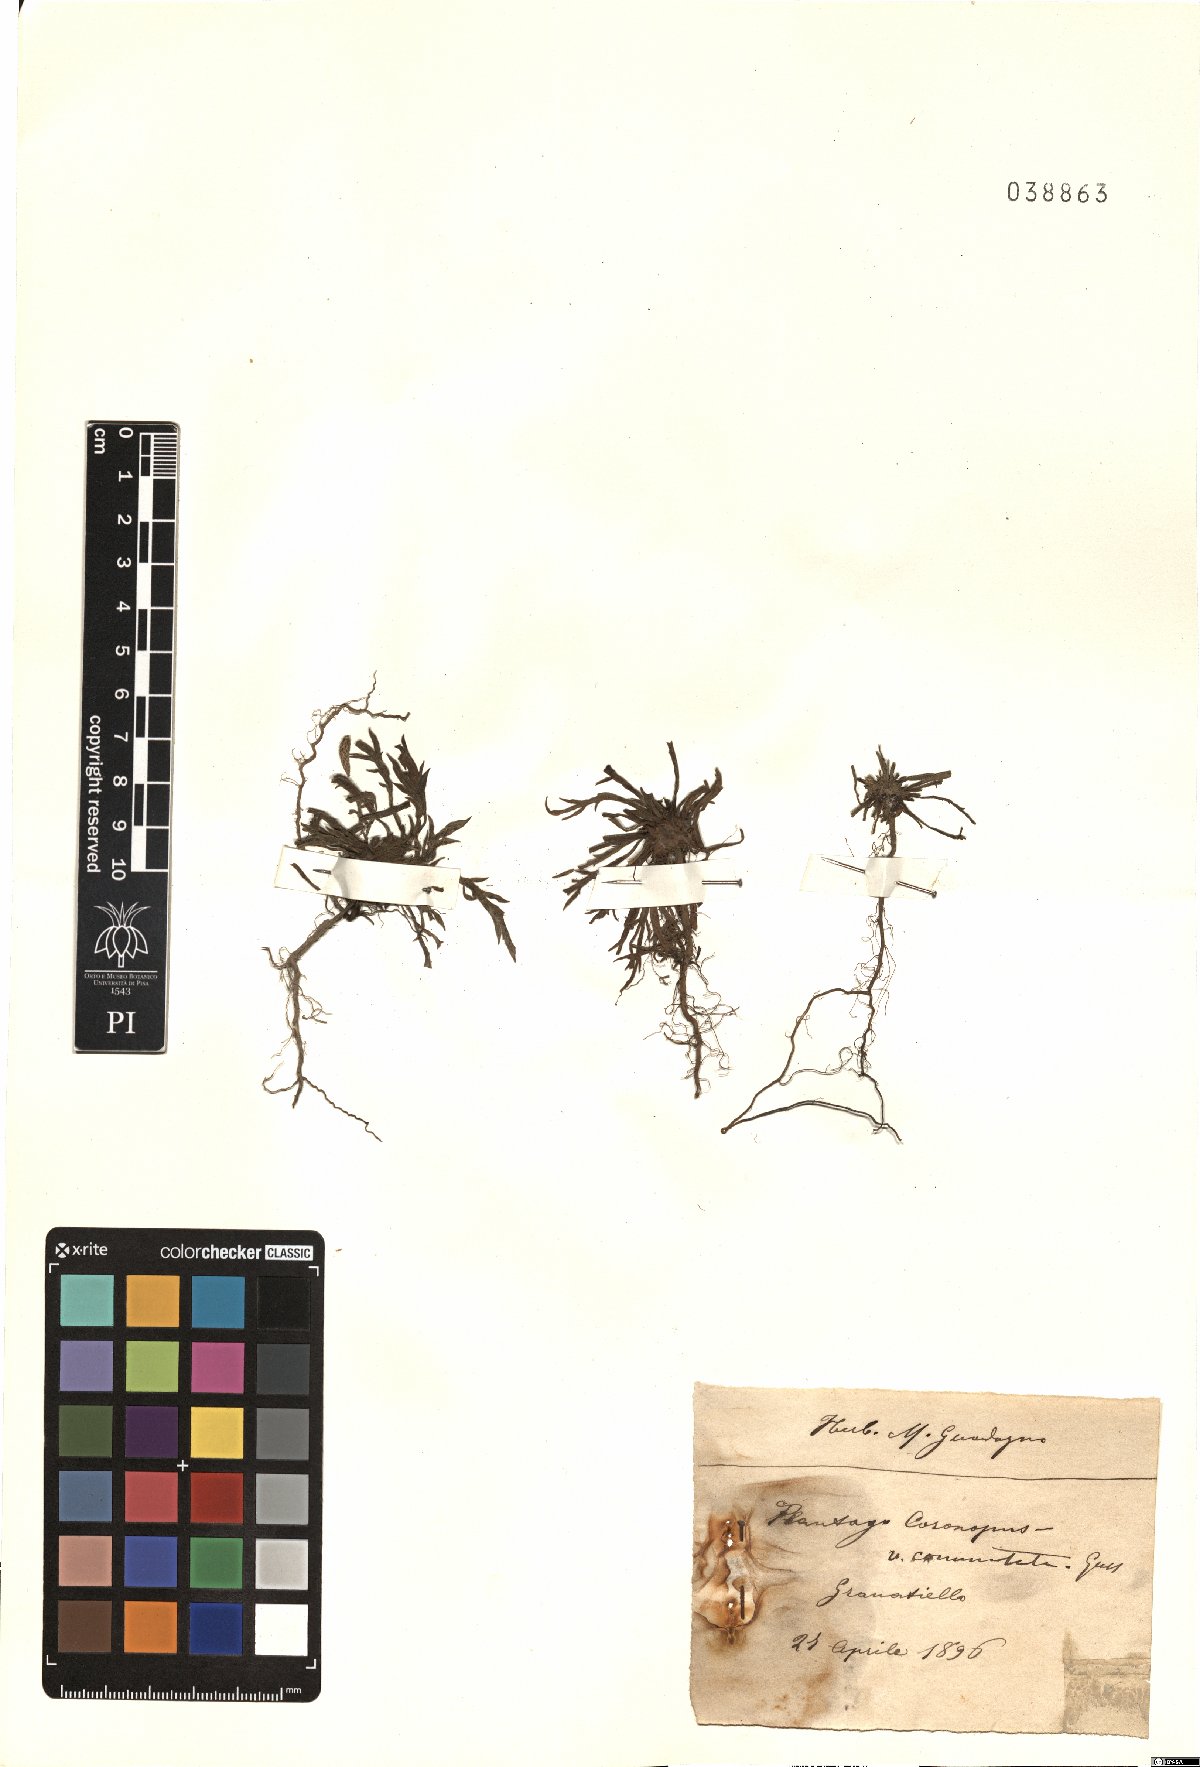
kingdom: Plantae
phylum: Tracheophyta
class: Magnoliopsida
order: Lamiales
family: Plantaginaceae
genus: Plantago
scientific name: Plantago weldenii
